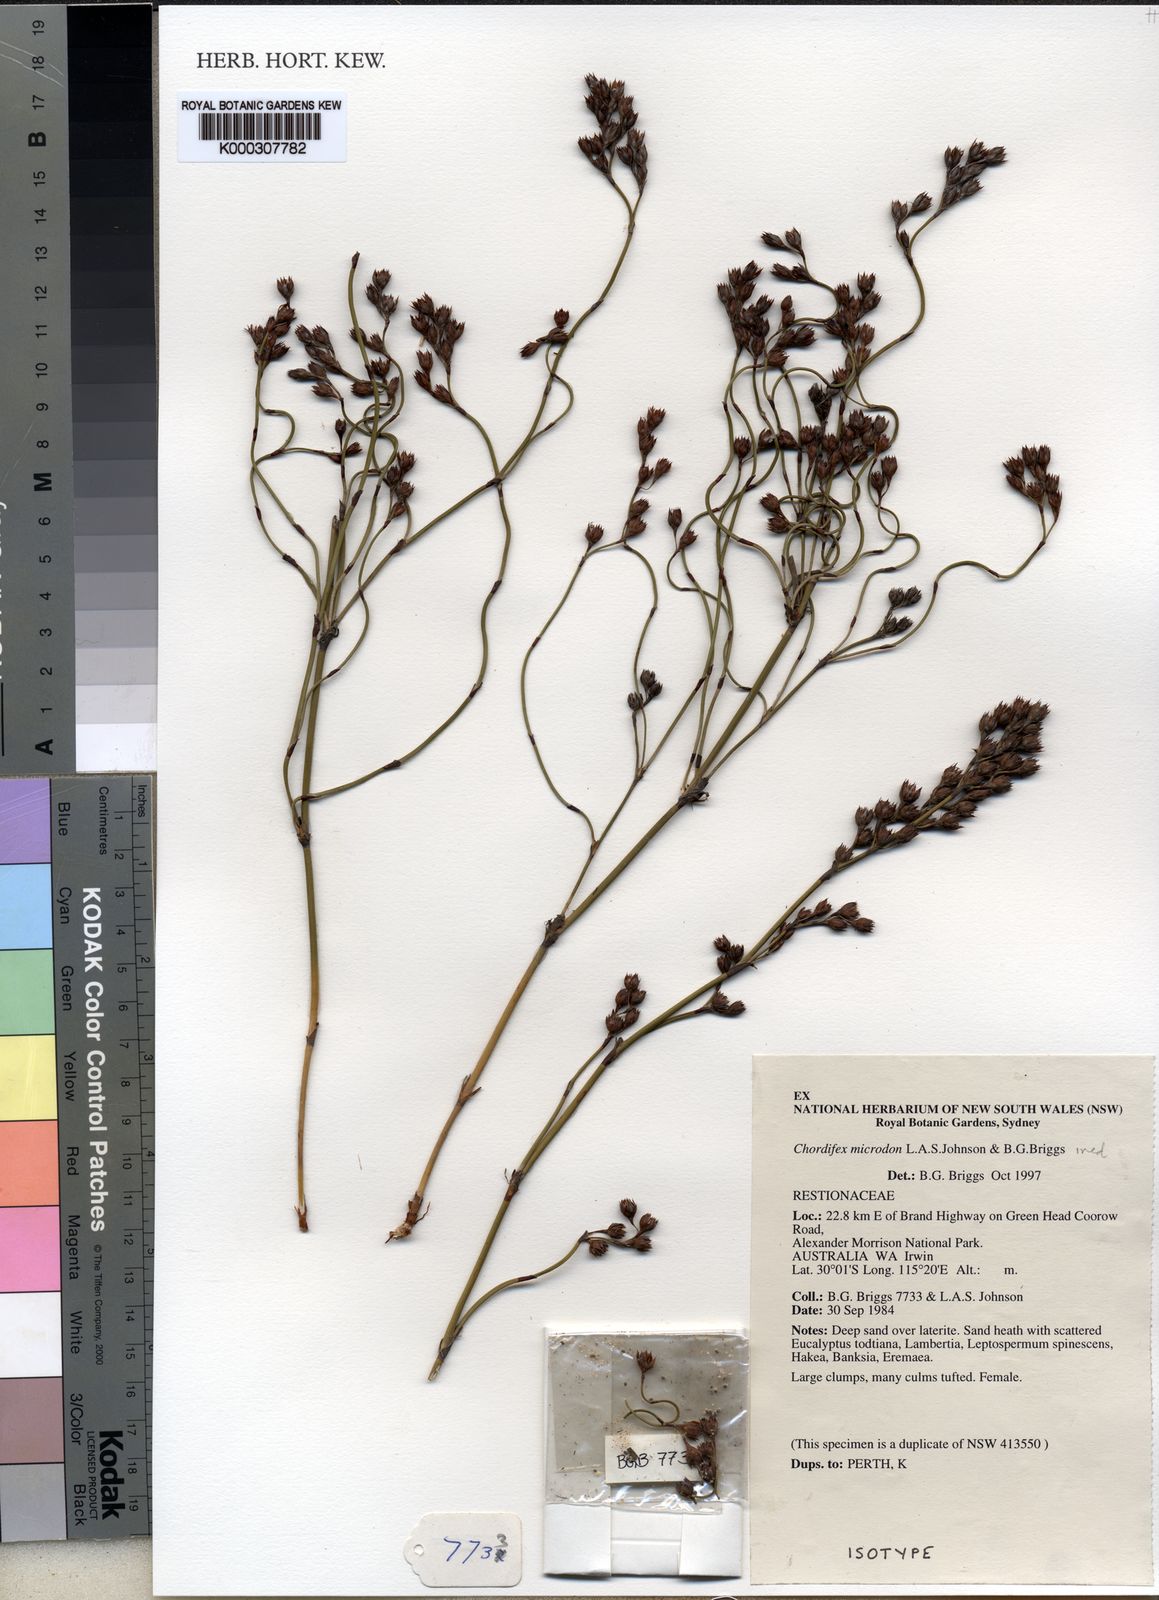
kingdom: Plantae
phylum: Tracheophyta
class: Liliopsida
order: Poales
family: Restionaceae
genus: Chordifex
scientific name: Chordifex microcodon
